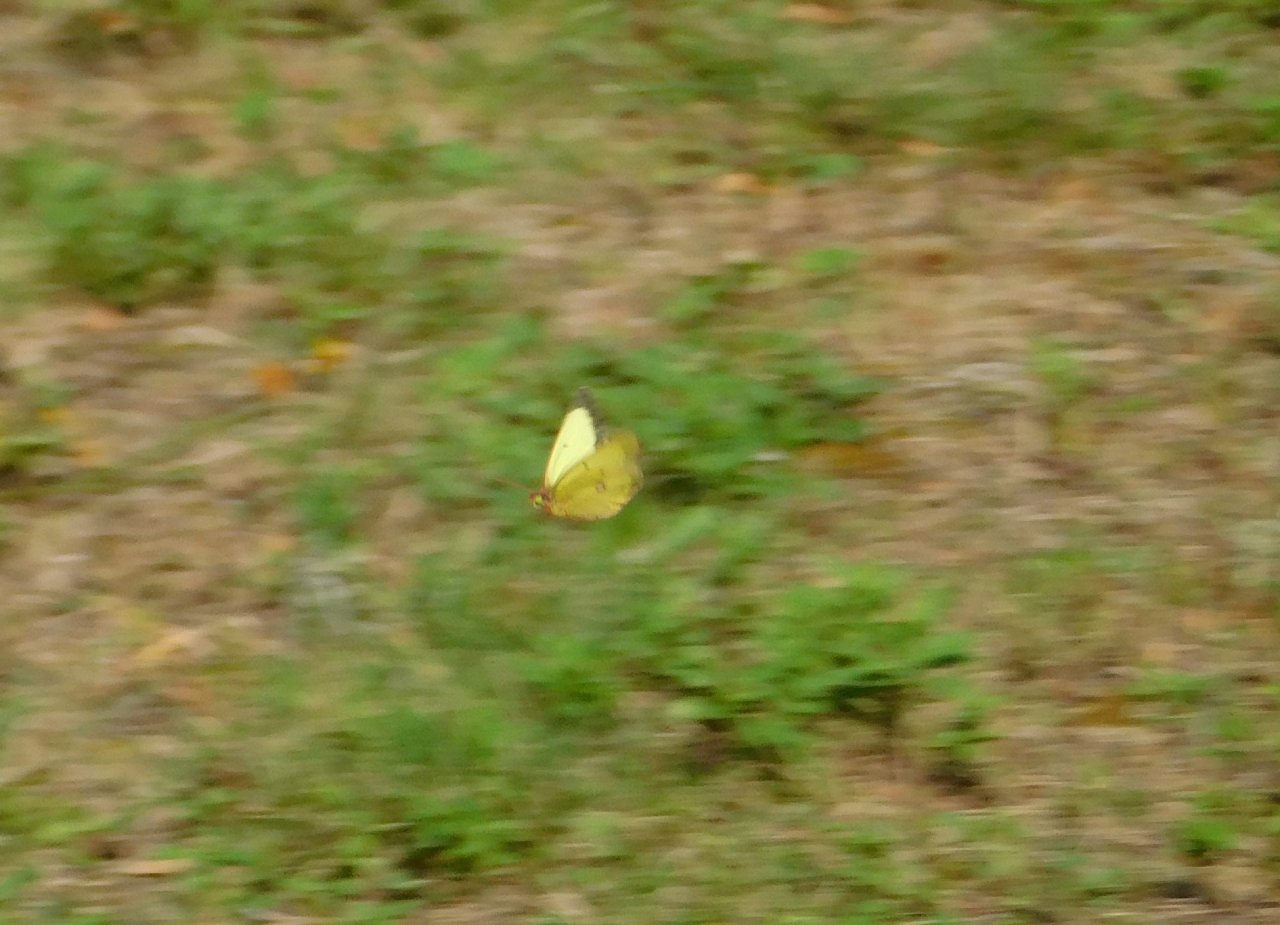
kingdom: Animalia
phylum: Arthropoda
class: Insecta
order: Lepidoptera
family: Pieridae
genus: Colias
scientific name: Colias philodice
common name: Clouded Sulphur
